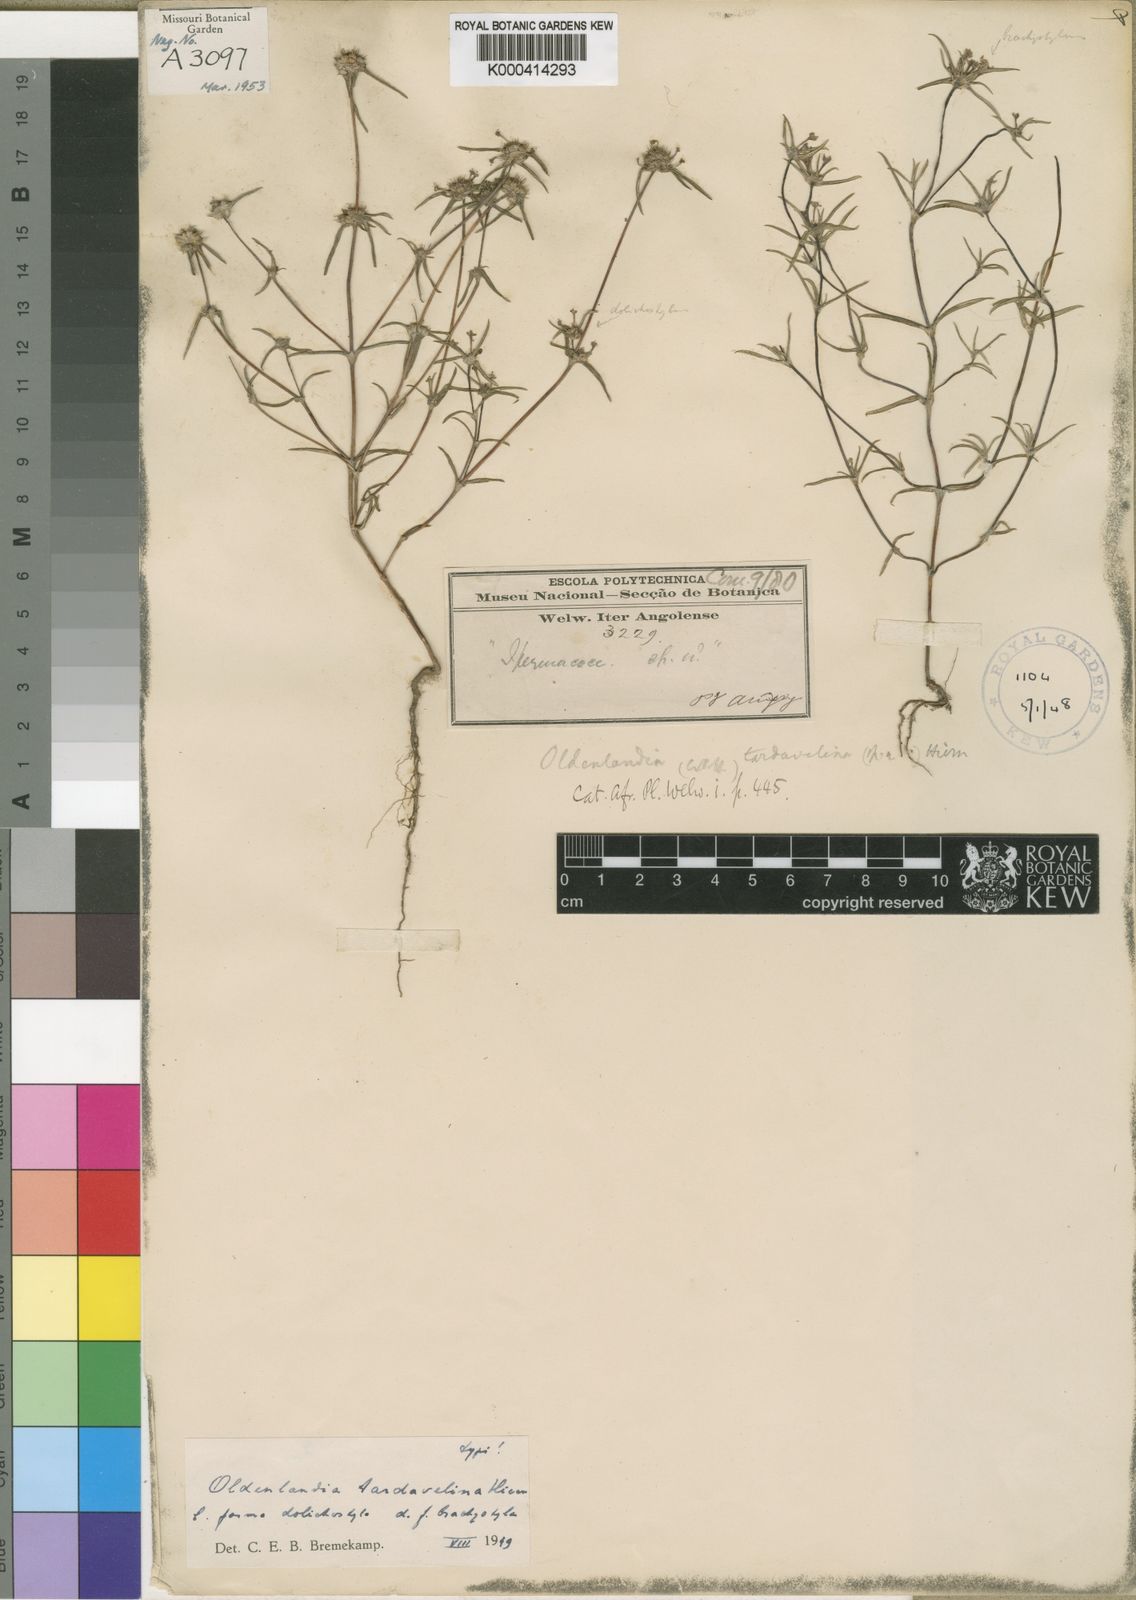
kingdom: Plantae
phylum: Tracheophyta
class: Magnoliopsida
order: Gentianales
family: Rubiaceae
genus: Oldenlandia
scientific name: Oldenlandia tardavelina
